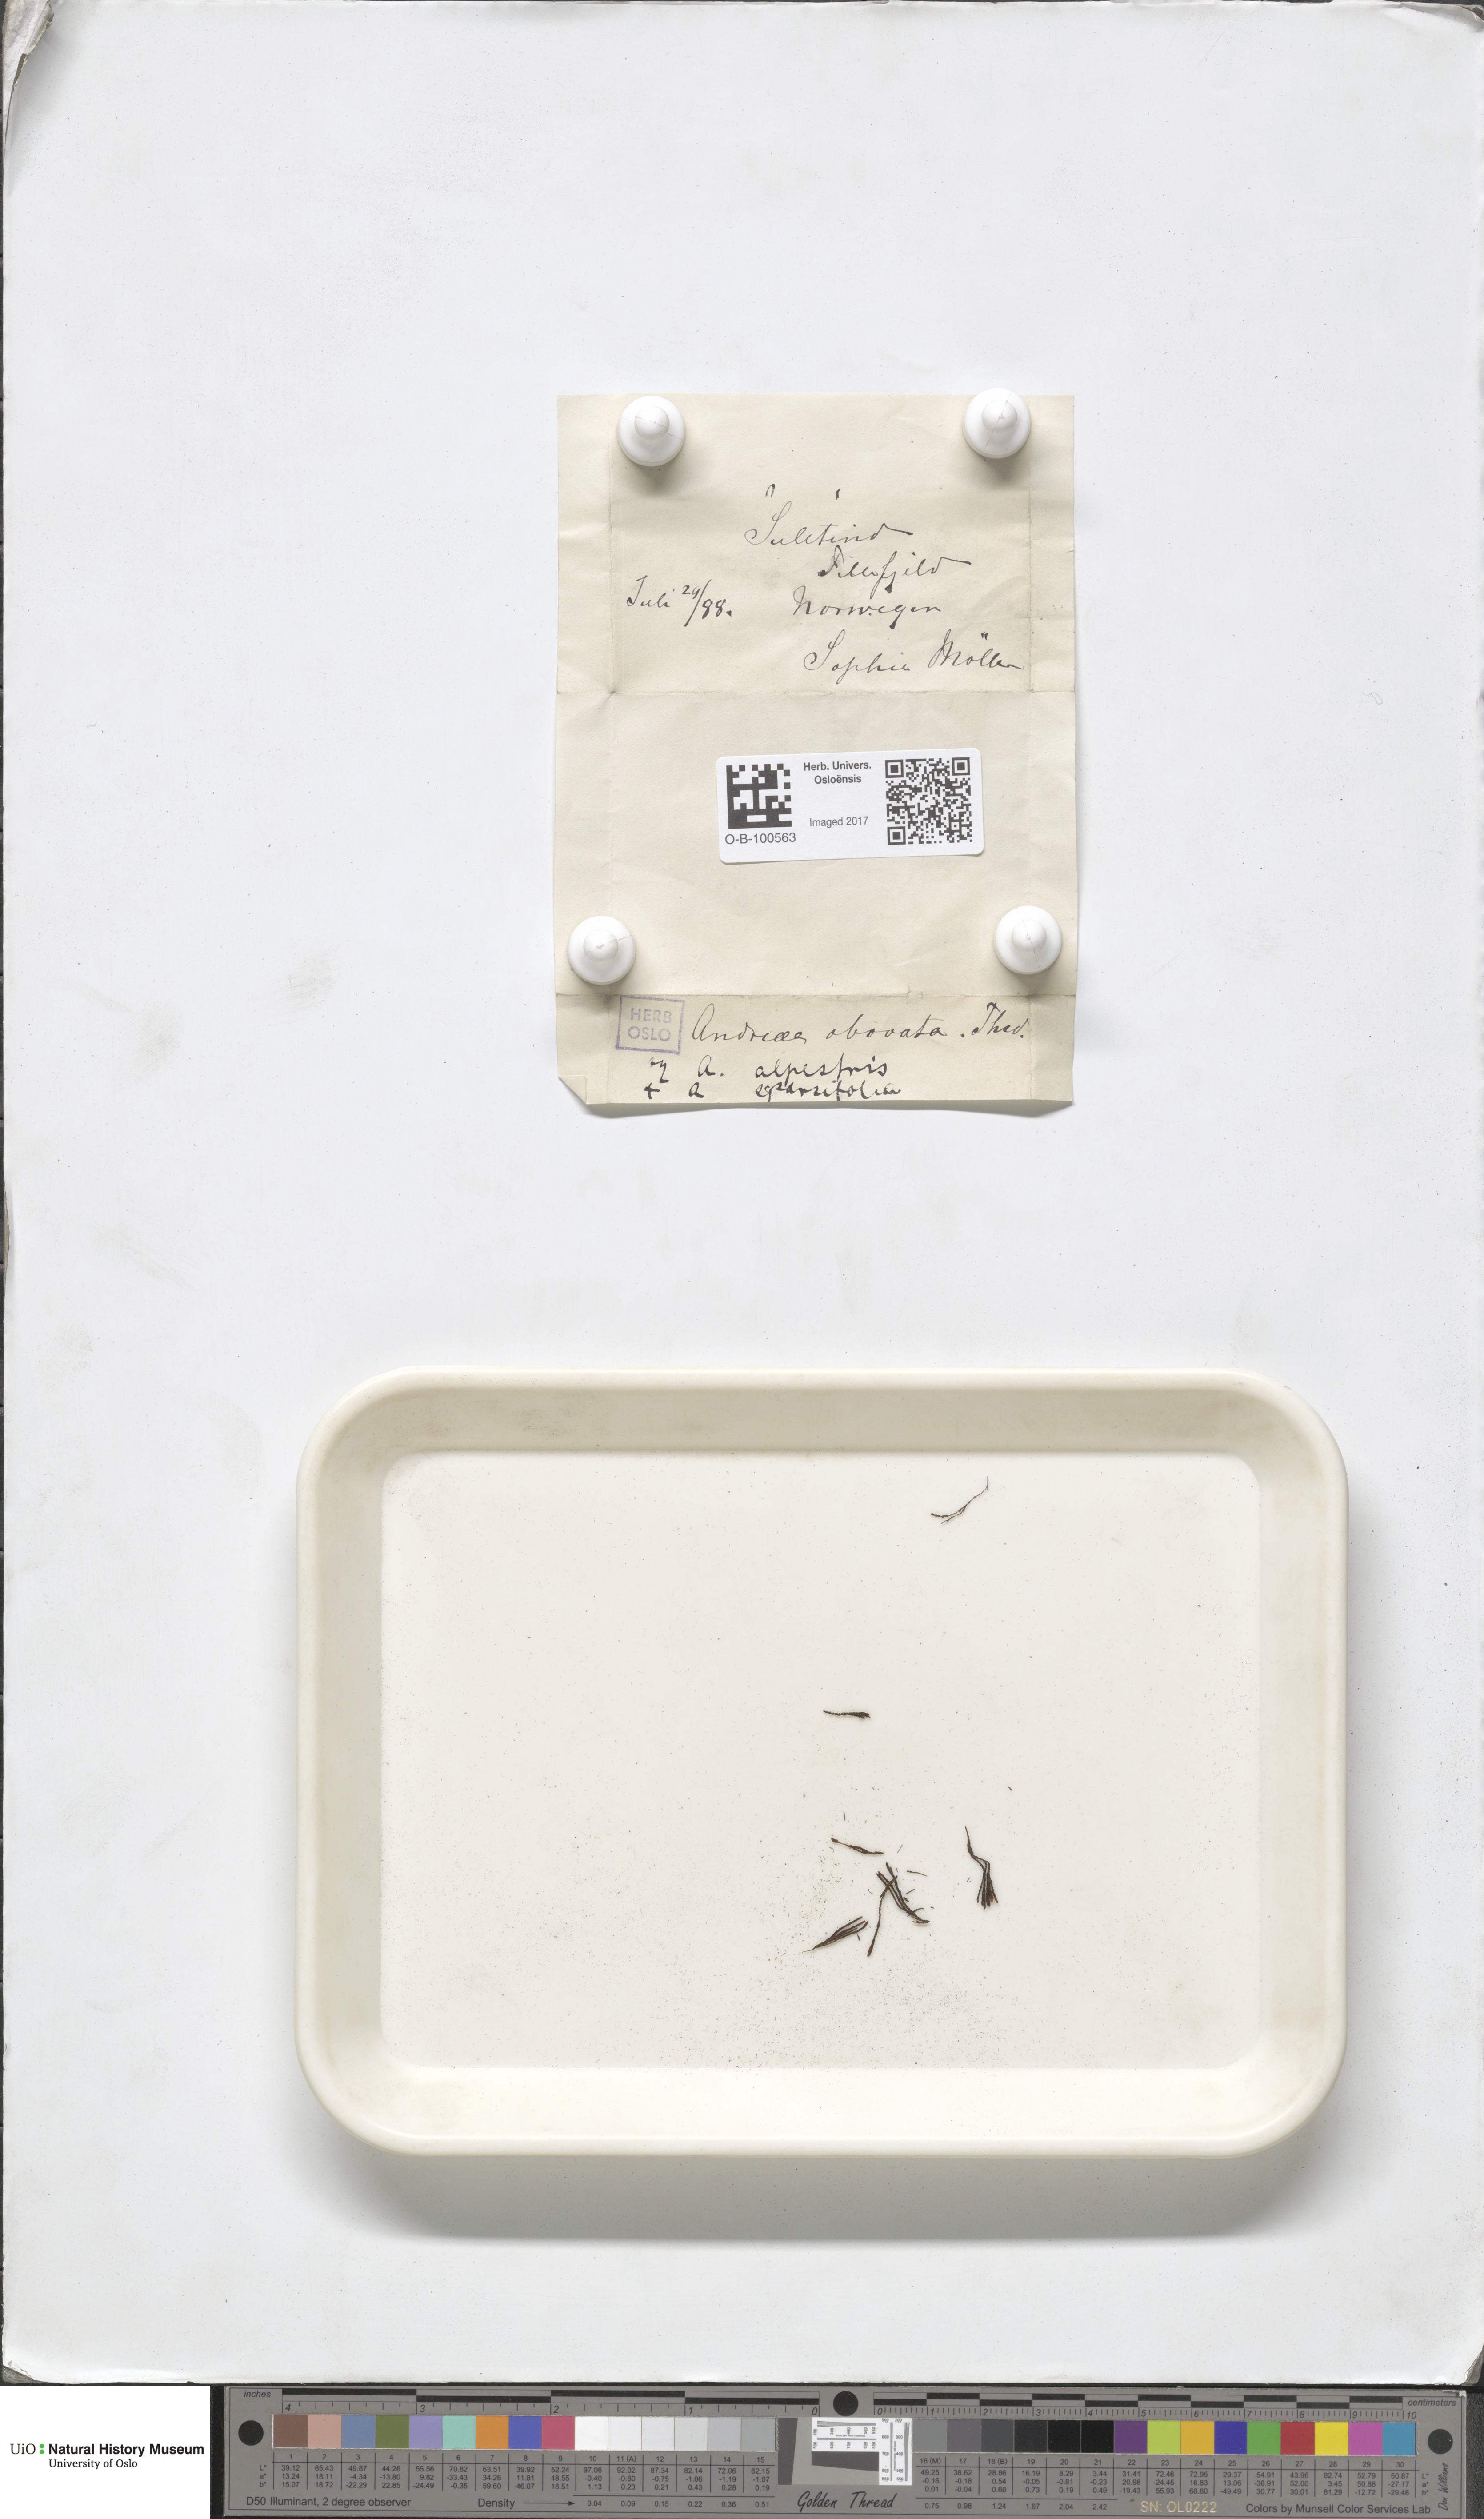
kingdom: Plantae
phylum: Bryophyta
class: Andreaeopsida
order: Andreaeales
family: Andreaeaceae
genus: Andreaea
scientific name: Andreaea alpina
